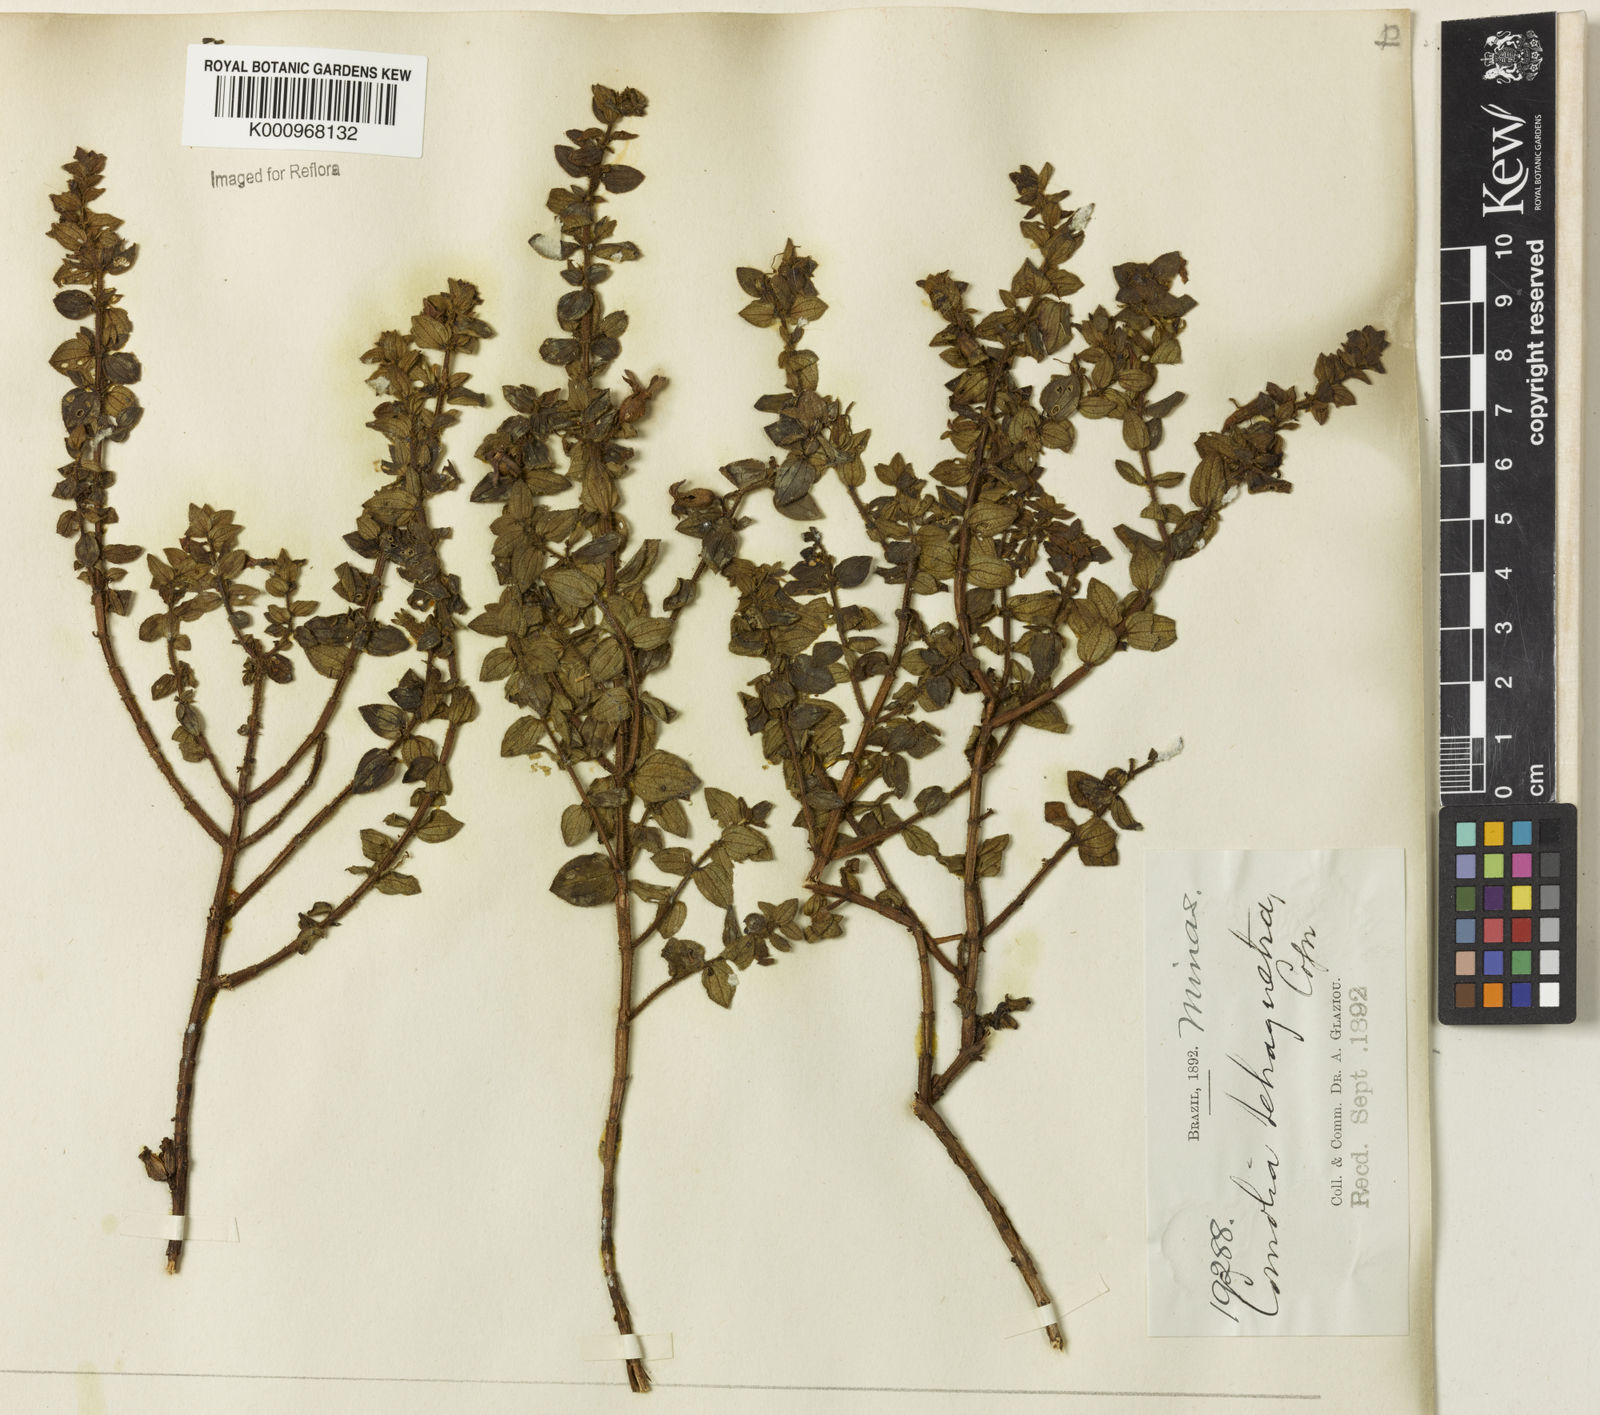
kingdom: Plantae
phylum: Tracheophyta
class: Magnoliopsida
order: Myrtales
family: Melastomataceae
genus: Fritzschia
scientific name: Fritzschia sessilis
